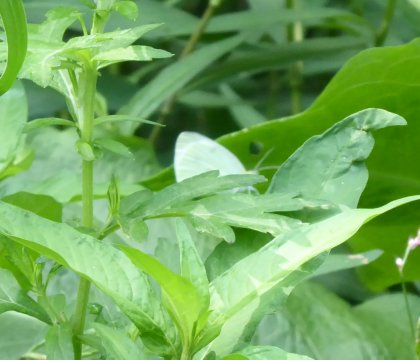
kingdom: Animalia
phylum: Arthropoda
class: Insecta
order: Lepidoptera
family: Pieridae
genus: Pieris
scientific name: Pieris rapae
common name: Cabbage White
